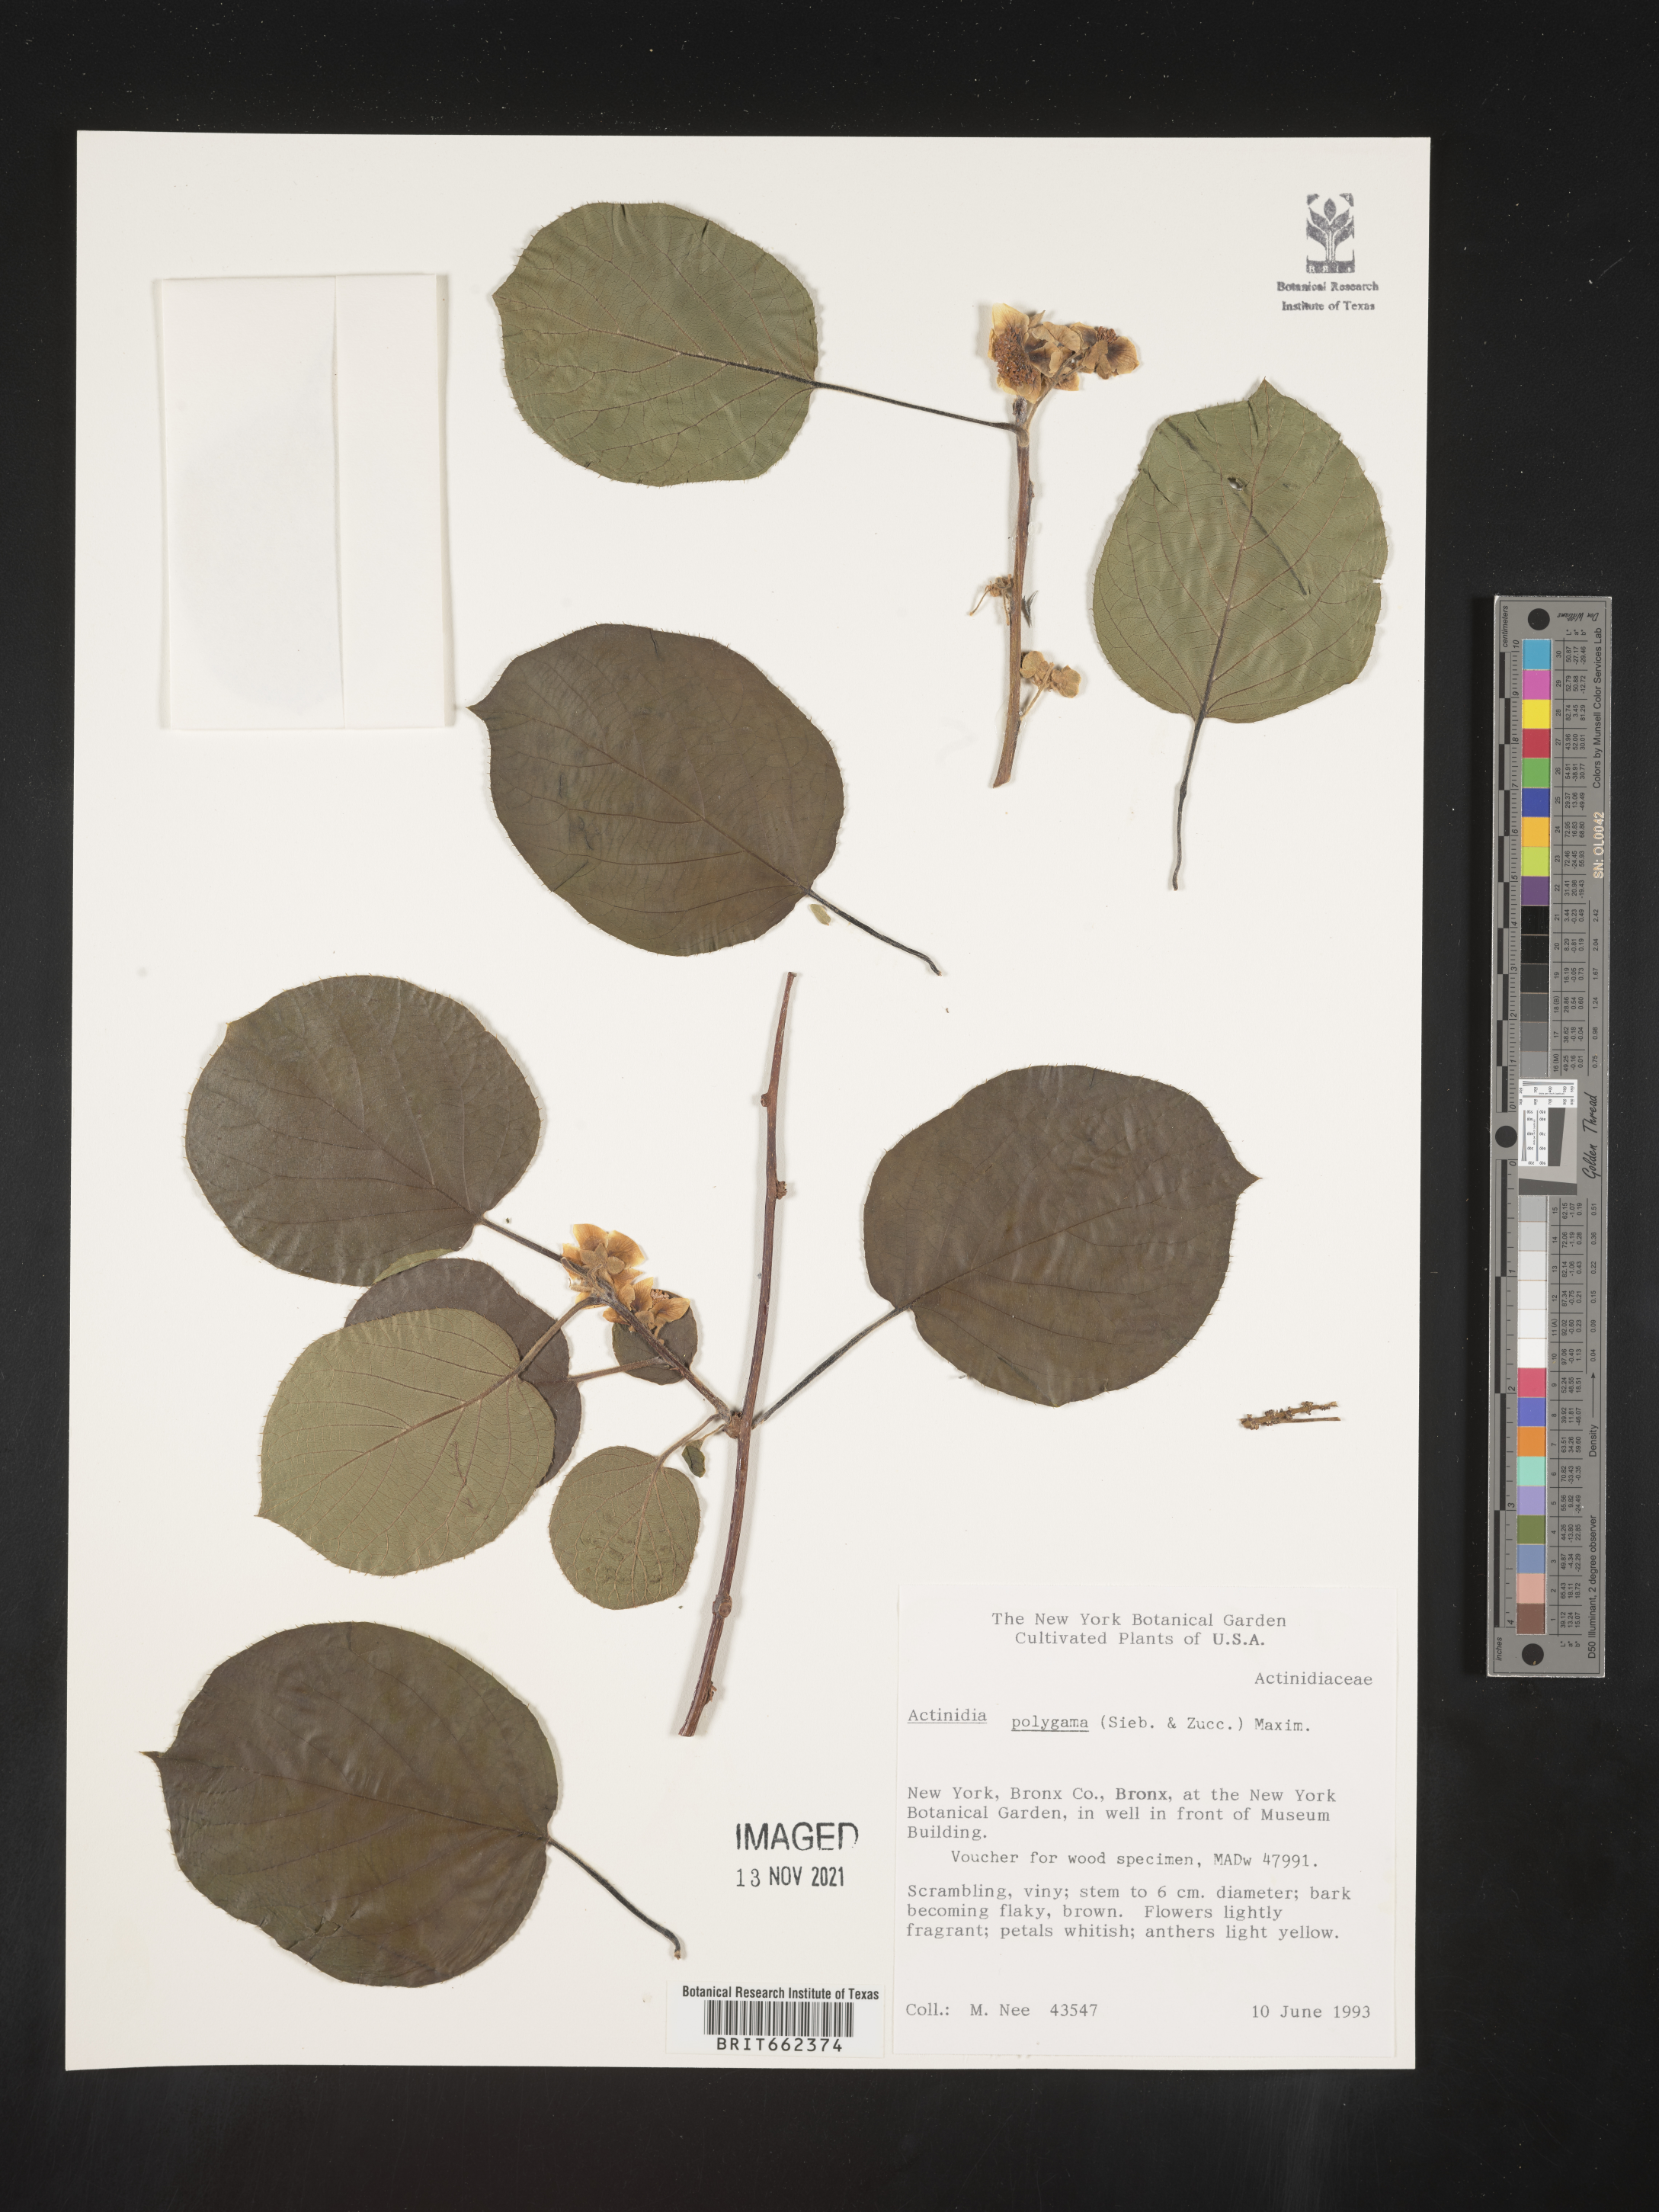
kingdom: Plantae
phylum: Tracheophyta
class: Magnoliopsida
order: Ericales
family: Actinidiaceae
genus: Actinidia
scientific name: Actinidia
